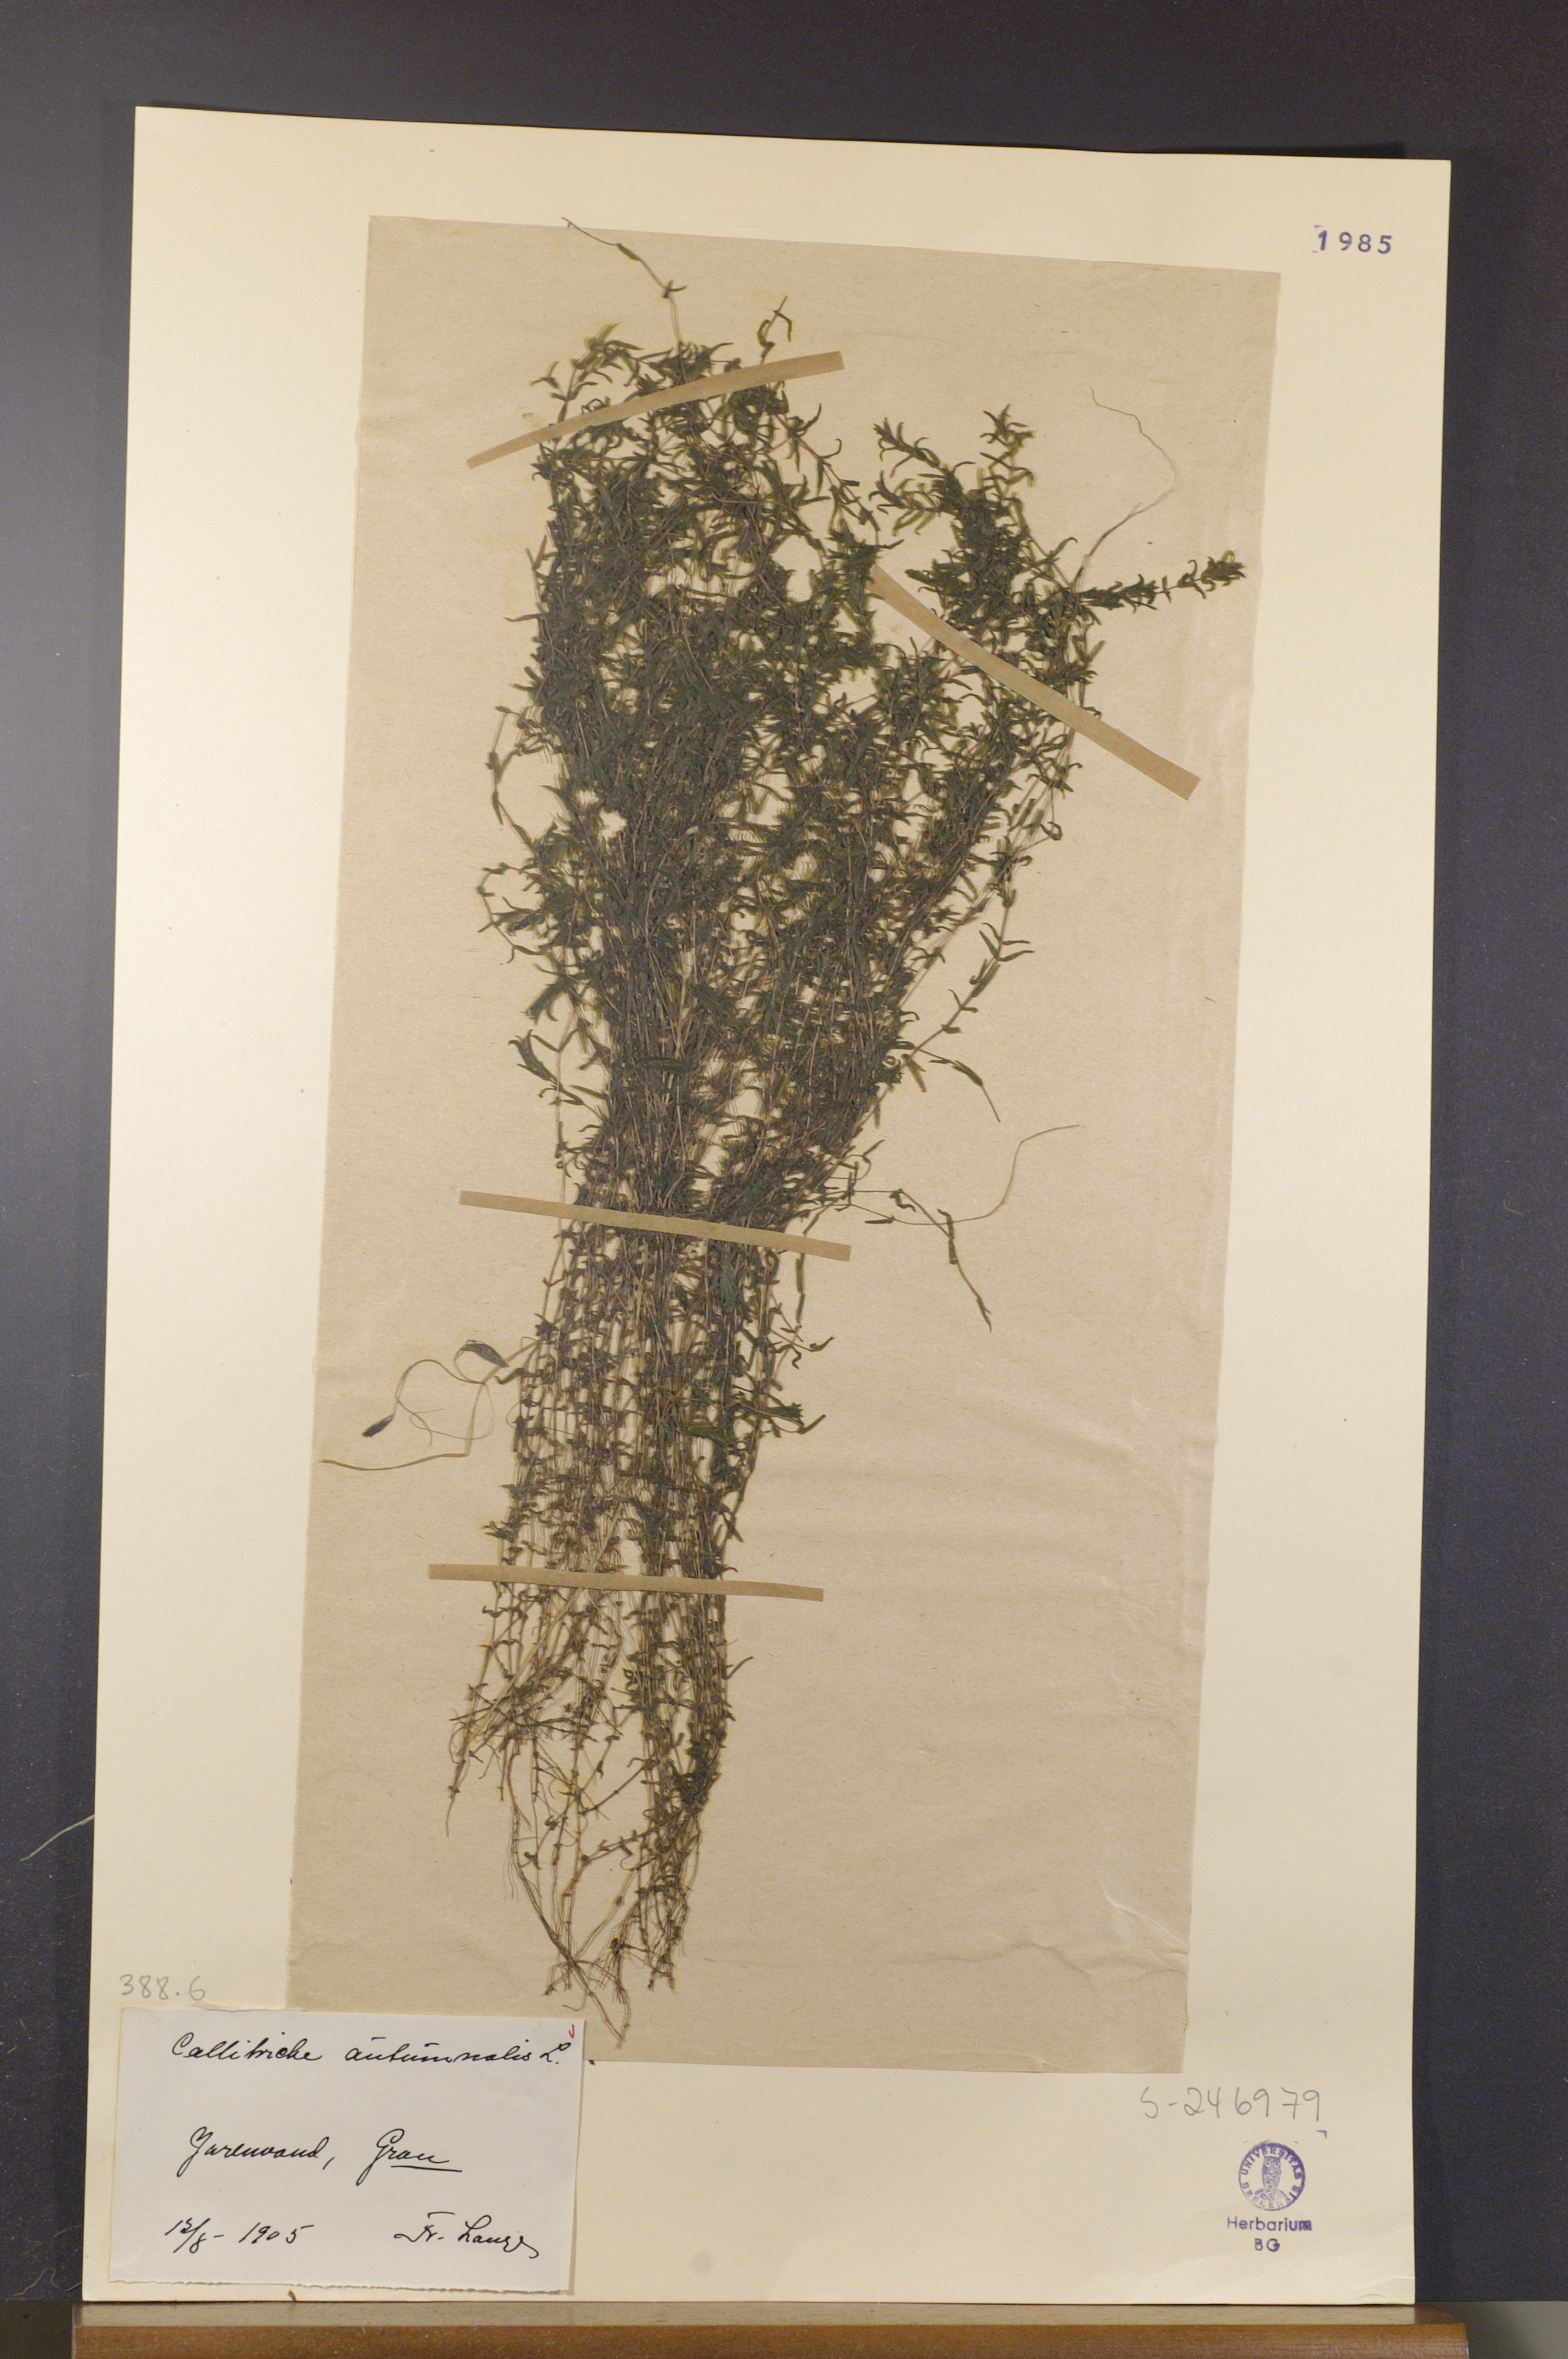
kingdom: Plantae
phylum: Tracheophyta
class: Magnoliopsida
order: Lamiales
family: Plantaginaceae
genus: Callitriche
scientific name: Callitriche hermaphroditica
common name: Autumnal water-starwort
